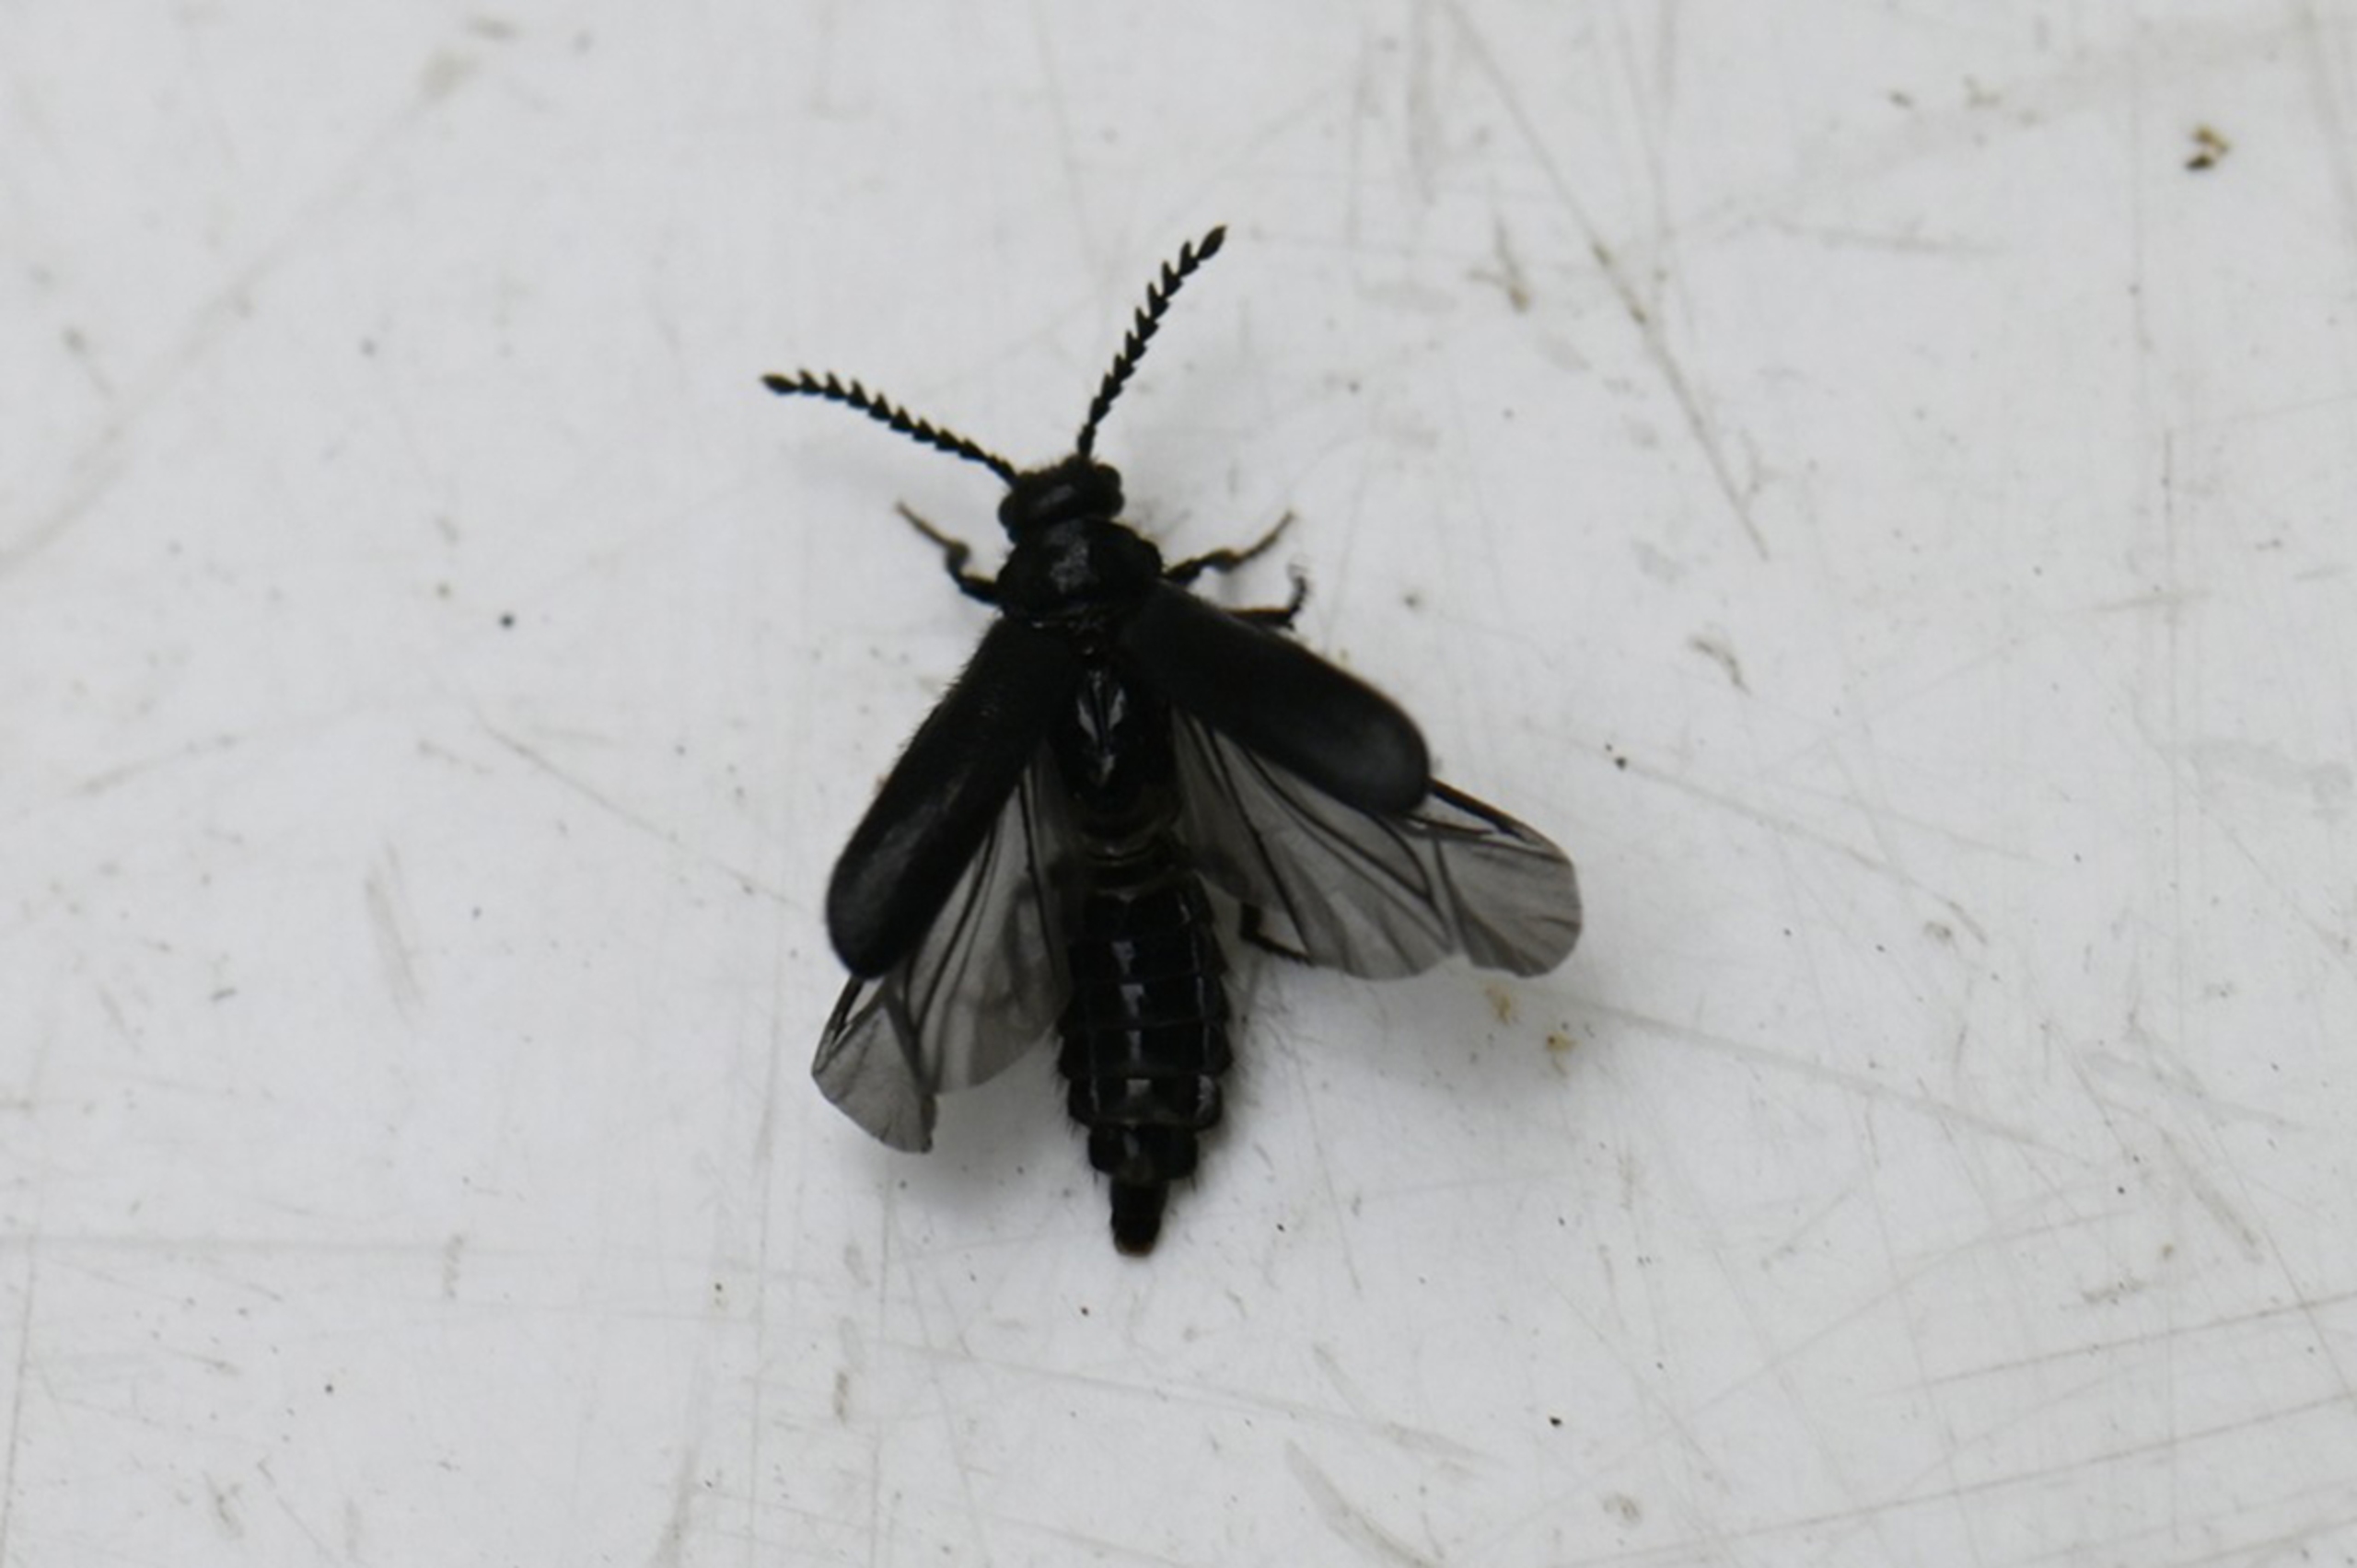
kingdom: Animalia
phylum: Arthropoda
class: Insecta
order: Coleoptera
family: Drilidae
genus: Drilus
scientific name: Drilus concolor
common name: Snegleblødvinge
